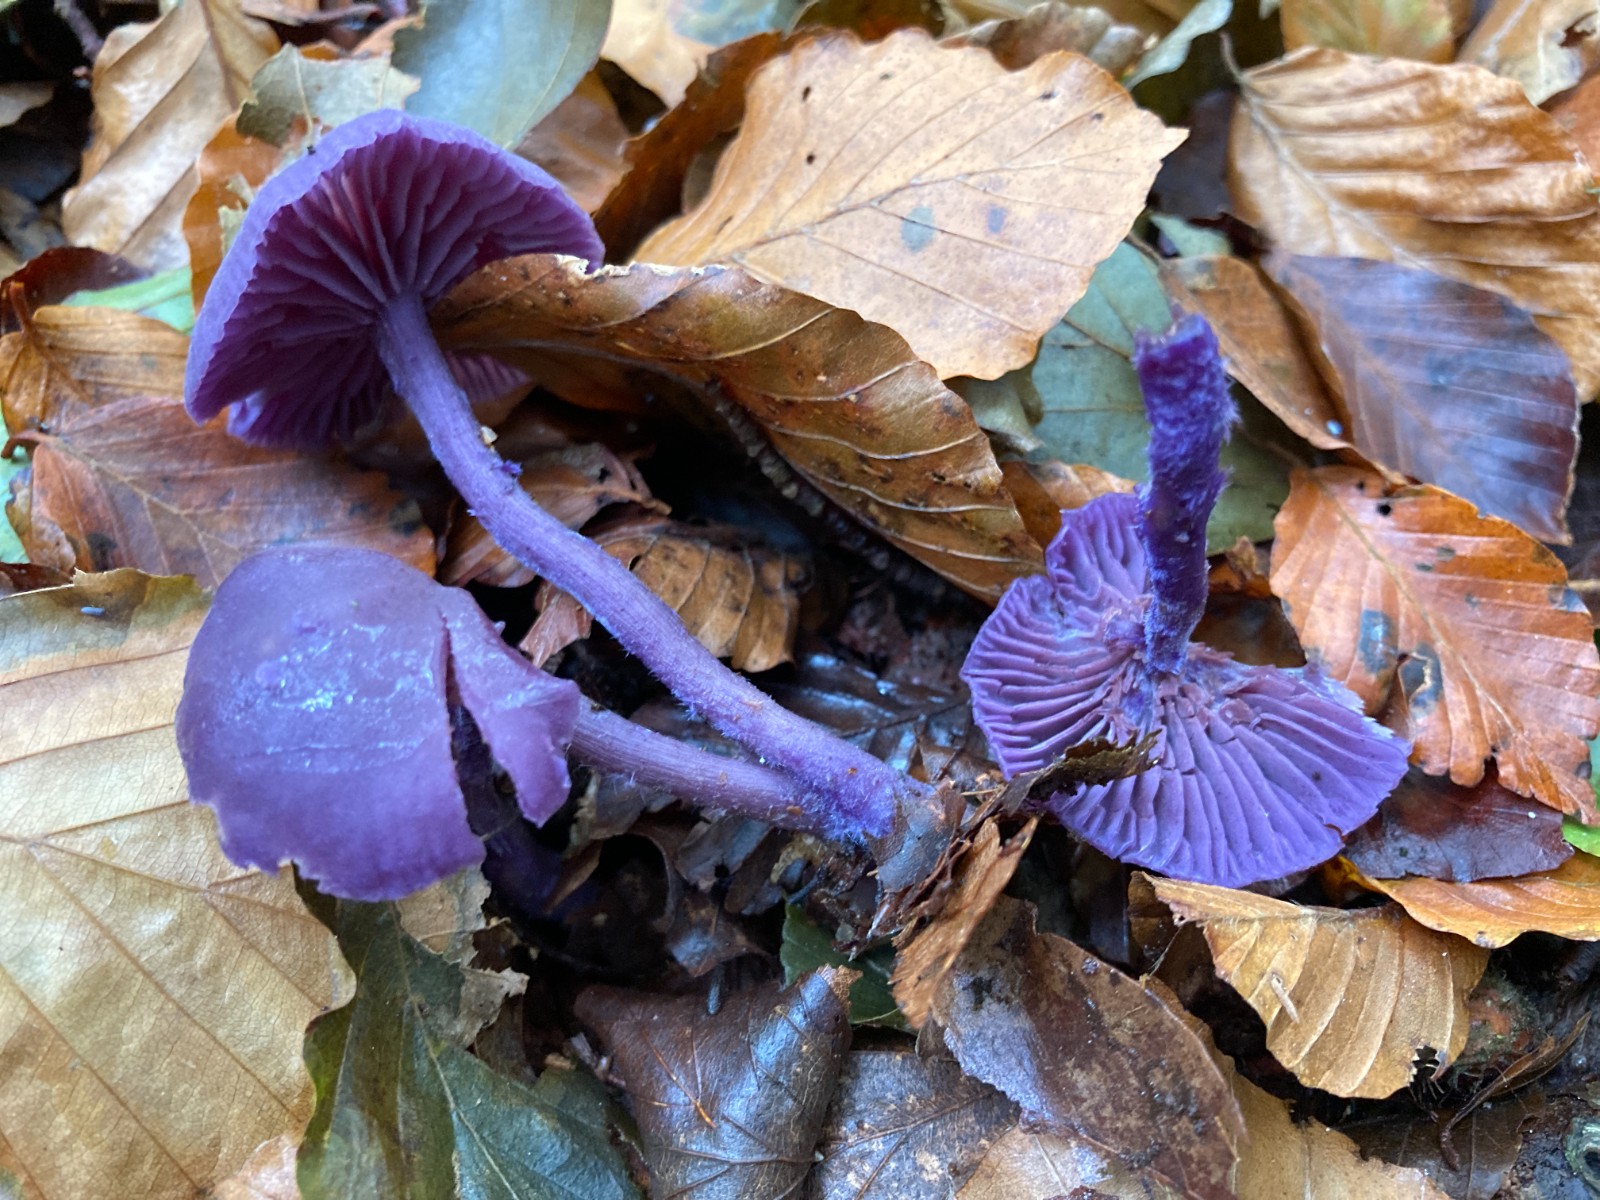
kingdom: Fungi
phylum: Basidiomycota
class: Agaricomycetes
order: Agaricales
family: Hydnangiaceae
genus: Laccaria
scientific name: Laccaria amethystina
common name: violet ametysthat
